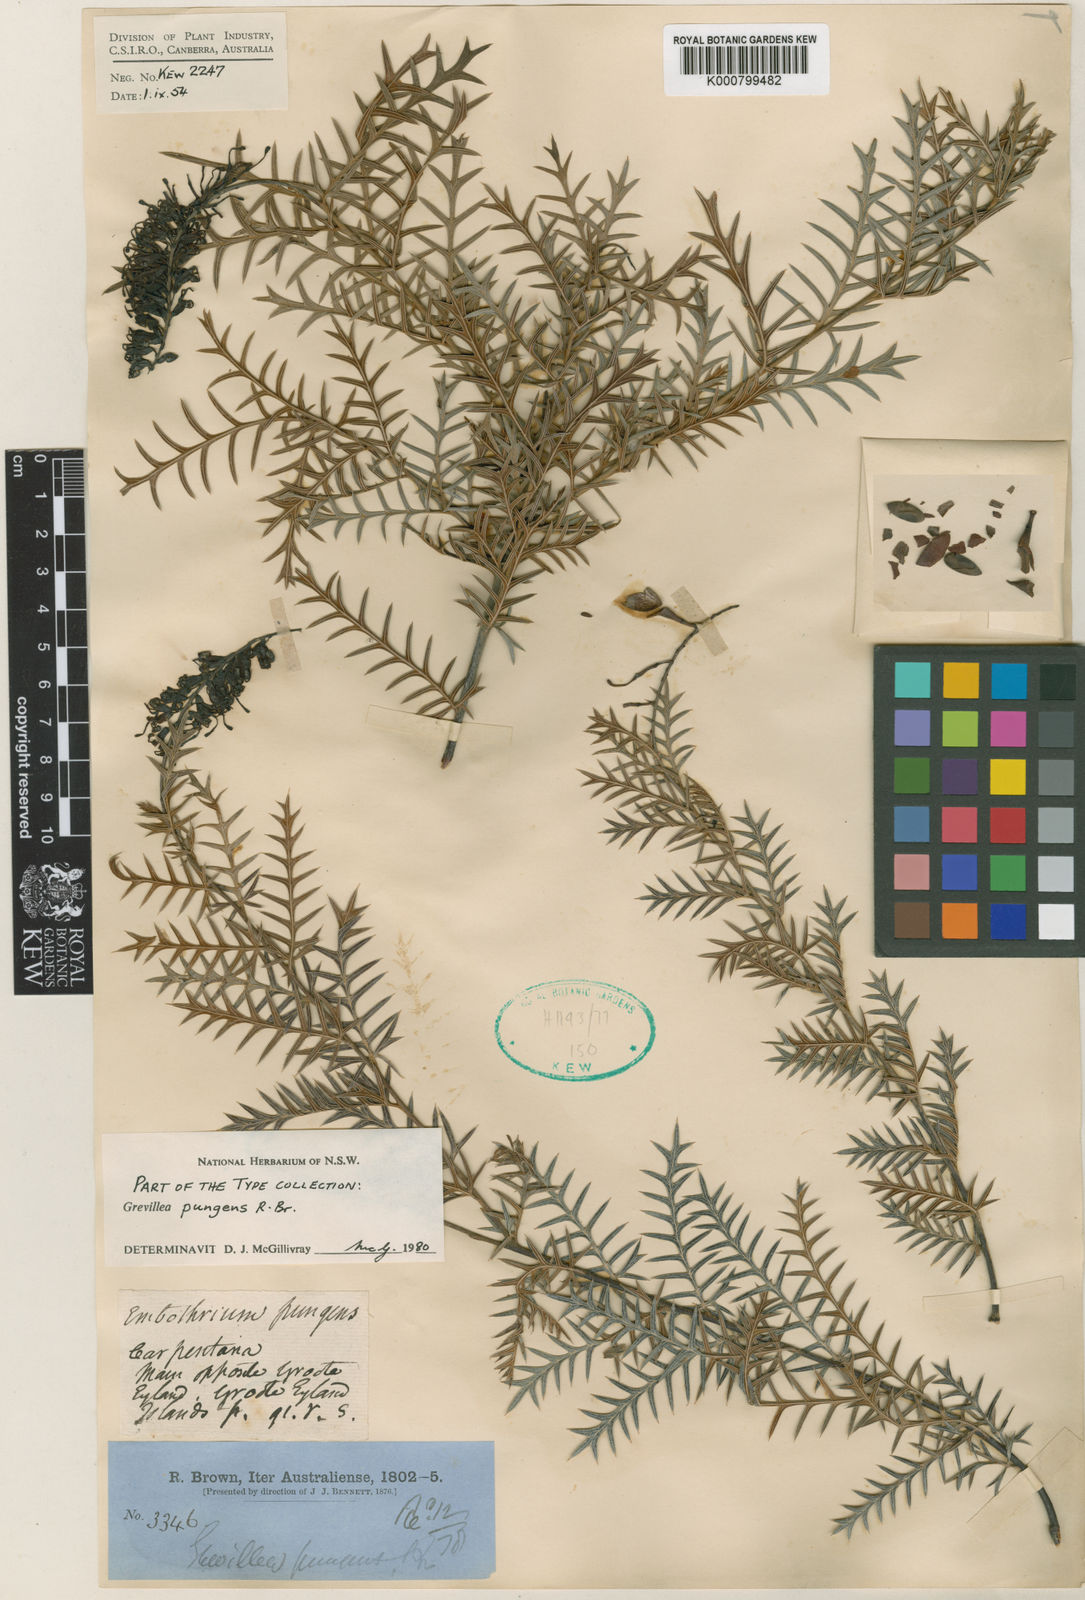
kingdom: Plantae
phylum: Tracheophyta
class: Magnoliopsida
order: Proteales
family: Proteaceae
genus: Grevillea
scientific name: Grevillea pungens
